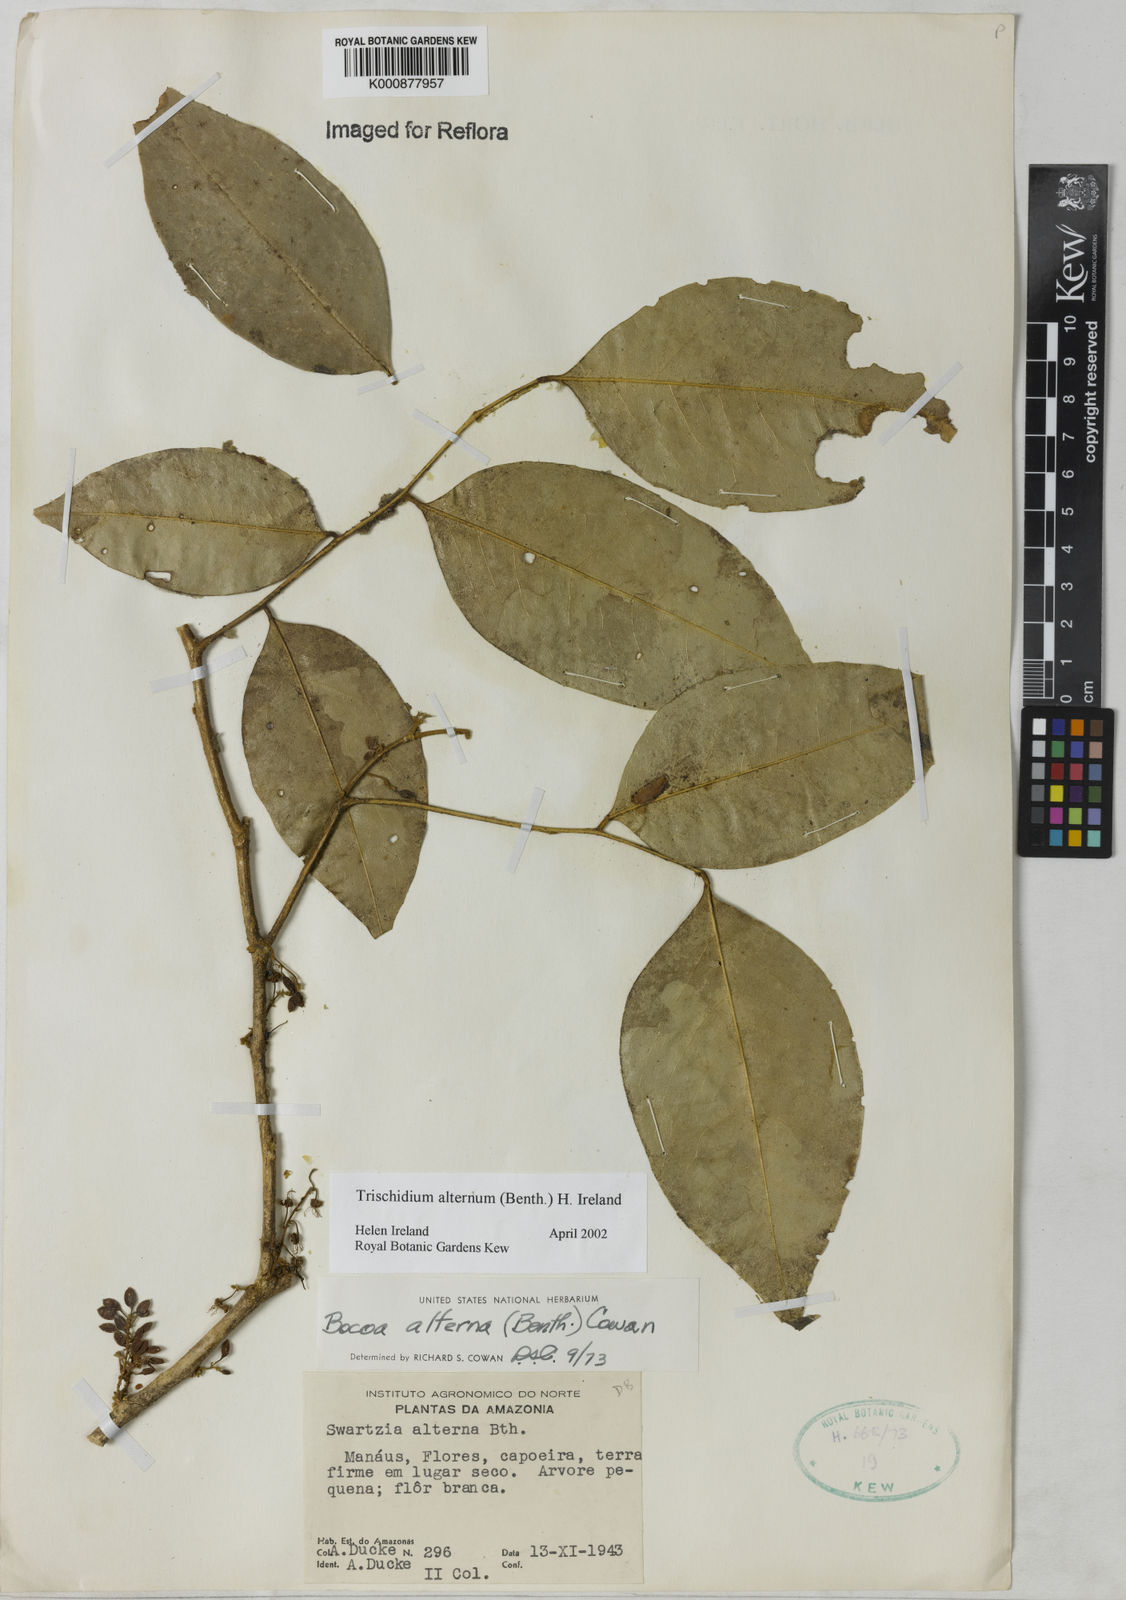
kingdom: Plantae
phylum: Tracheophyta
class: Magnoliopsida
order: Fabales
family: Fabaceae
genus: Trischidium
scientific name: Trischidium alternum
